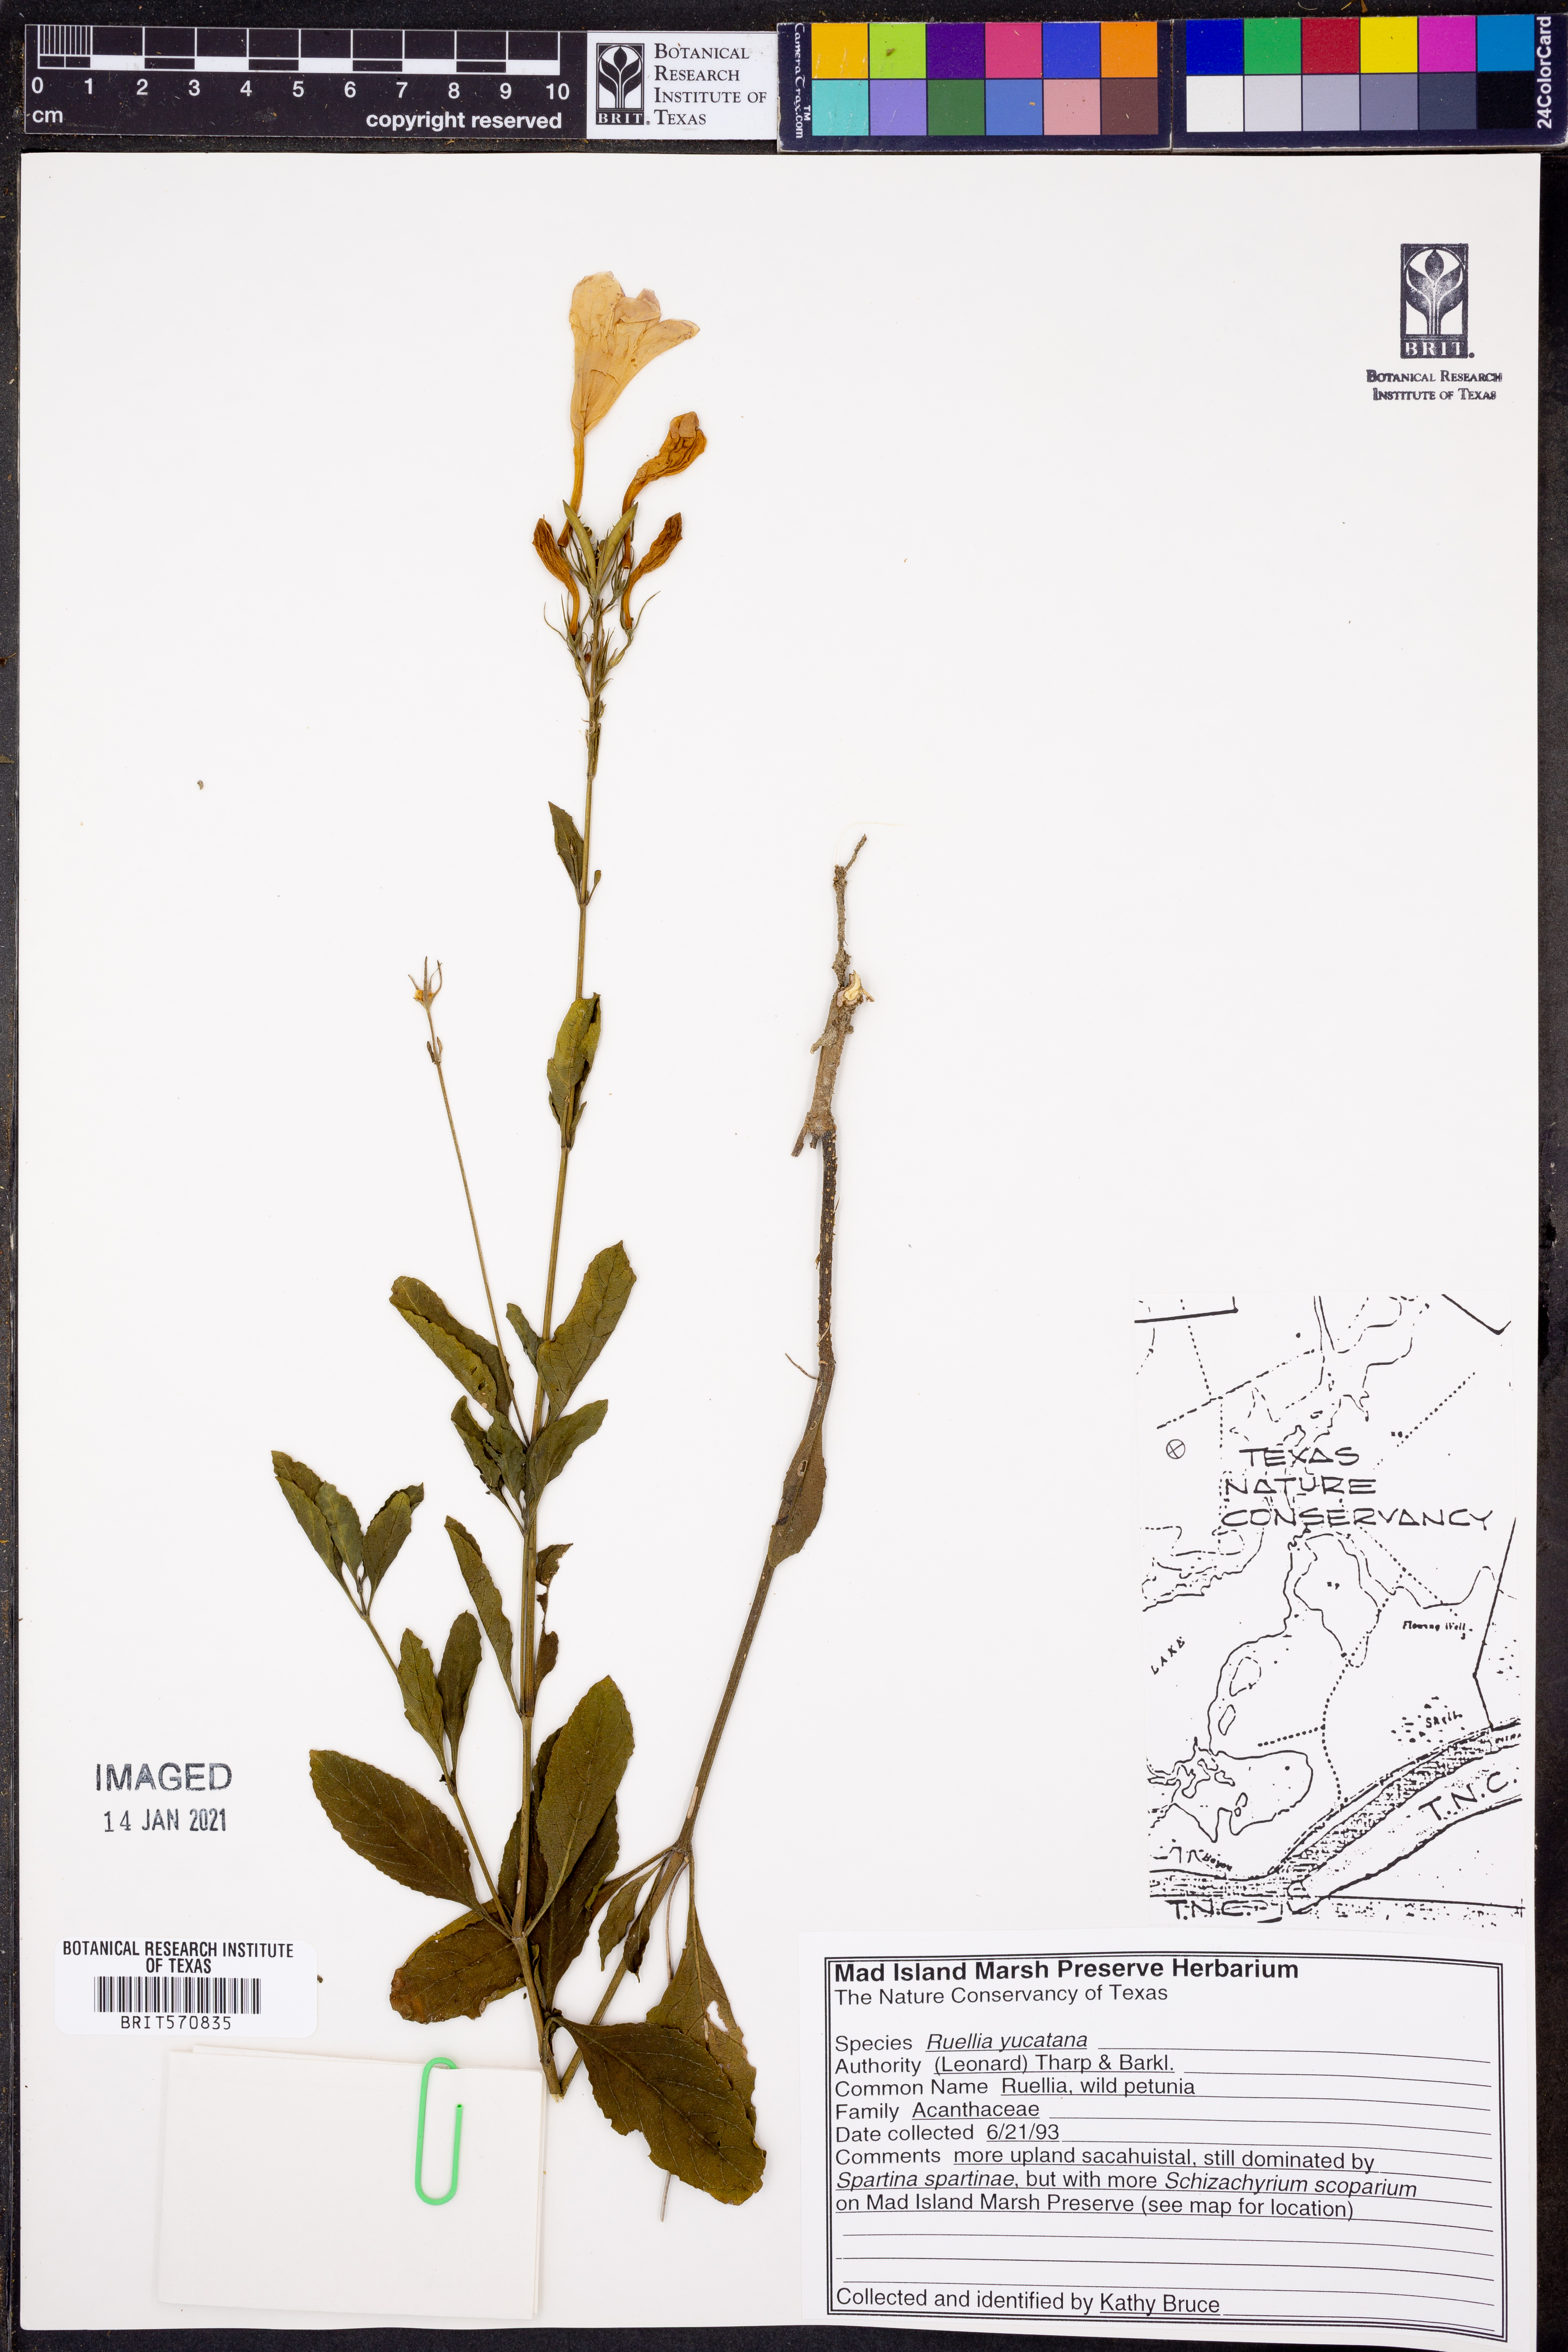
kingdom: Plantae
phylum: Tracheophyta
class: Magnoliopsida
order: Lamiales
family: Acanthaceae
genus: Ruellia
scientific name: Ruellia ciliatiflora
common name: Hairyflower wild petunia
